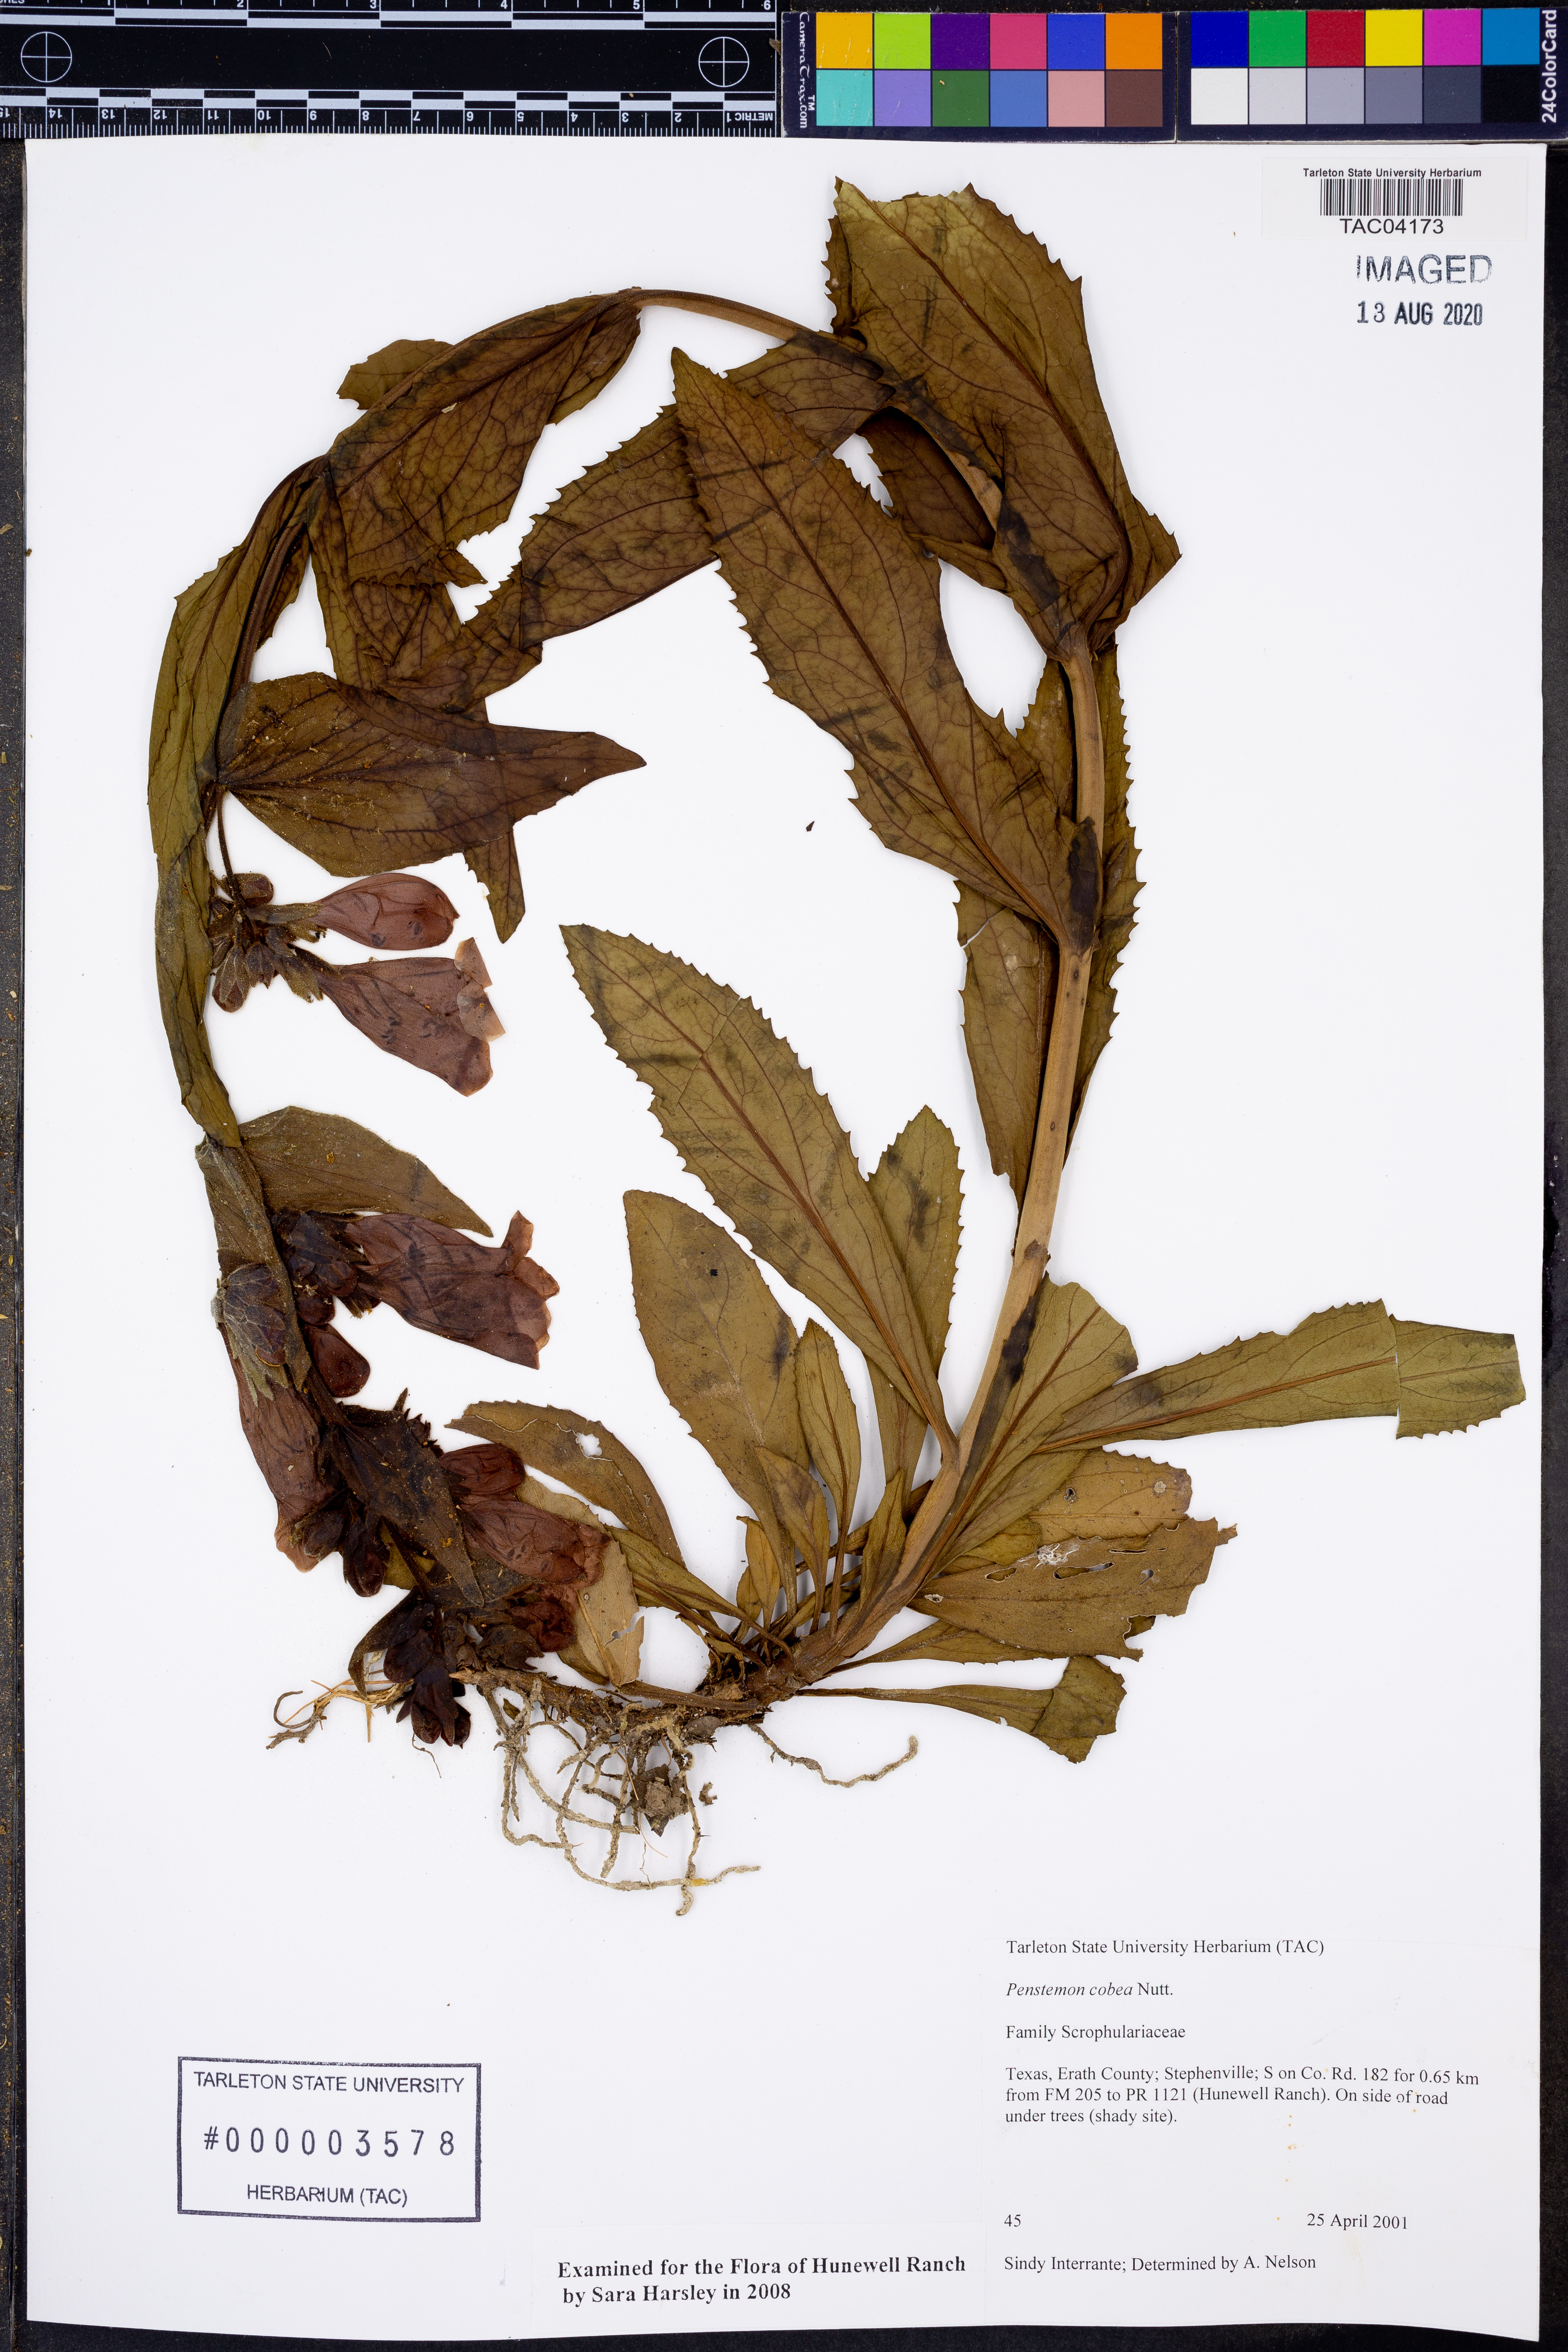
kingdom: Plantae
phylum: Tracheophyta
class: Magnoliopsida
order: Lamiales
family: Plantaginaceae
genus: Penstemon
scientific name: Penstemon cobaea
